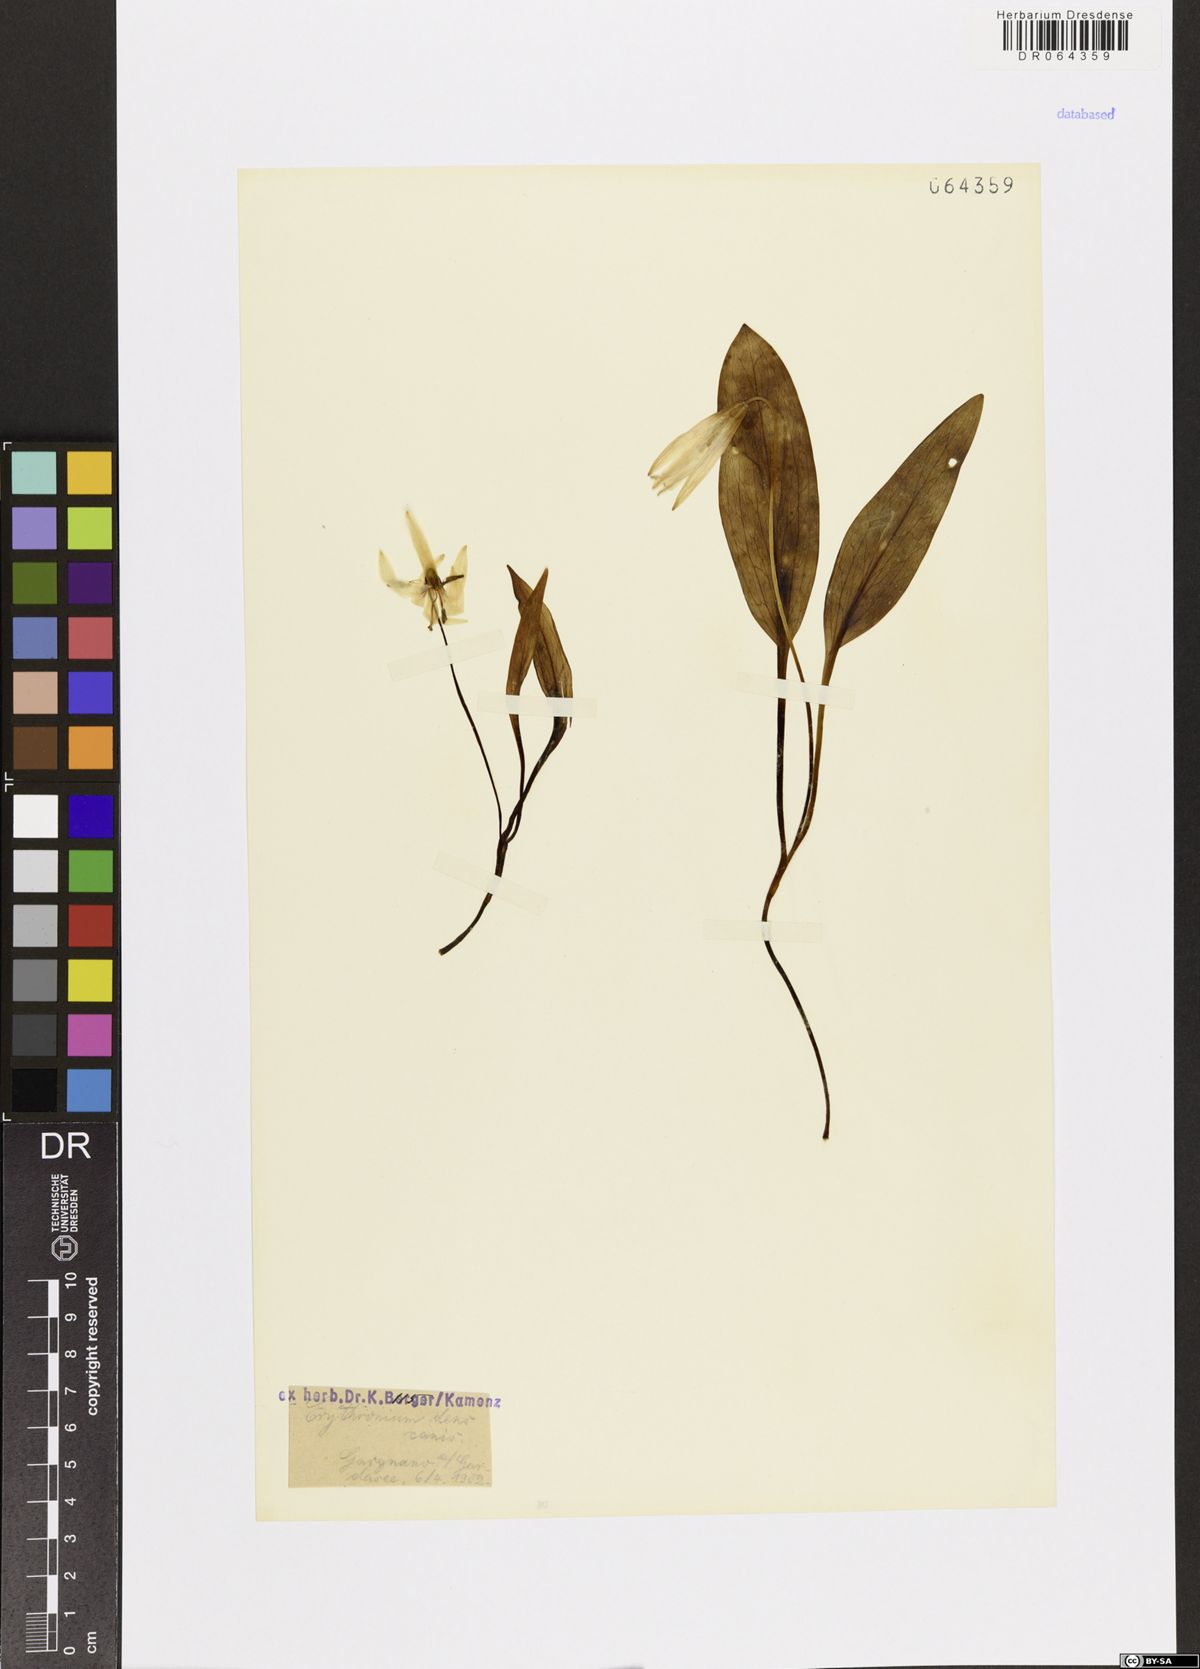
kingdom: Plantae
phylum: Tracheophyta
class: Liliopsida
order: Liliales
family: Liliaceae
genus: Erythronium
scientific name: Erythronium dens-canis
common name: Dog's-tooth-violet
